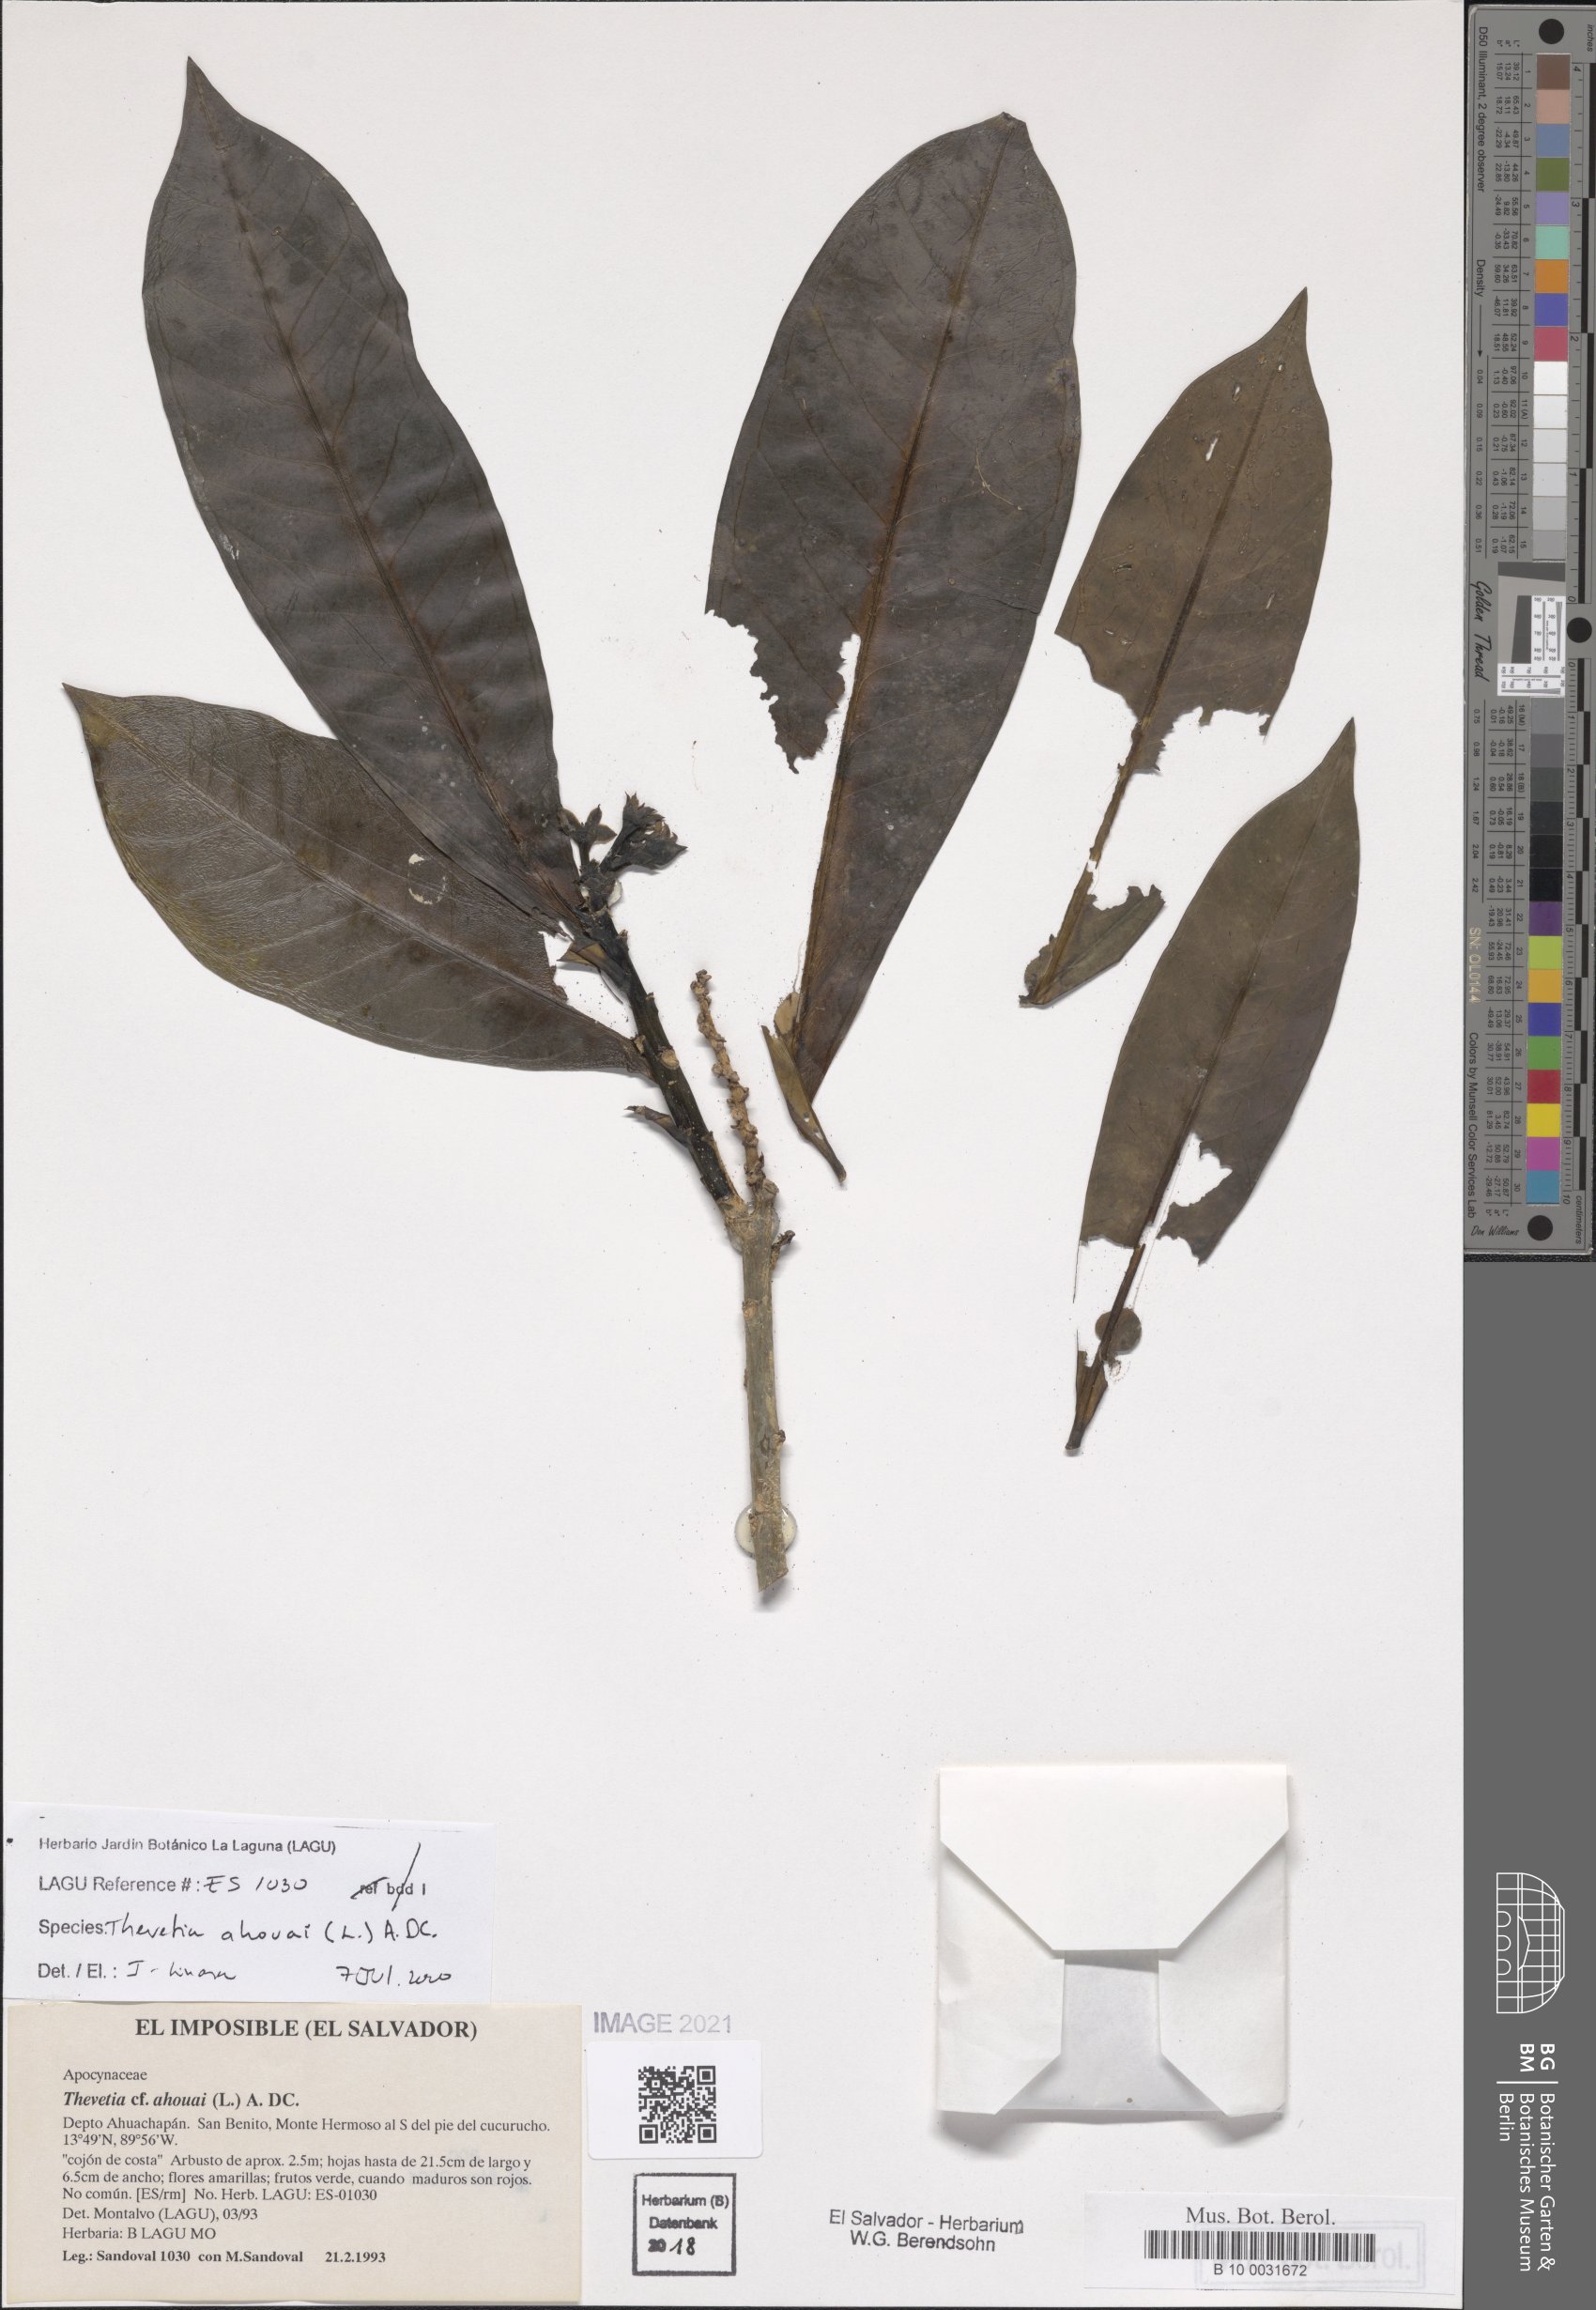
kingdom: Plantae
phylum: Tracheophyta
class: Magnoliopsida
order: Gentianales
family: Apocynaceae
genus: Thevetia
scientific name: Thevetia ahouai
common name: Broadleaf thevetia
